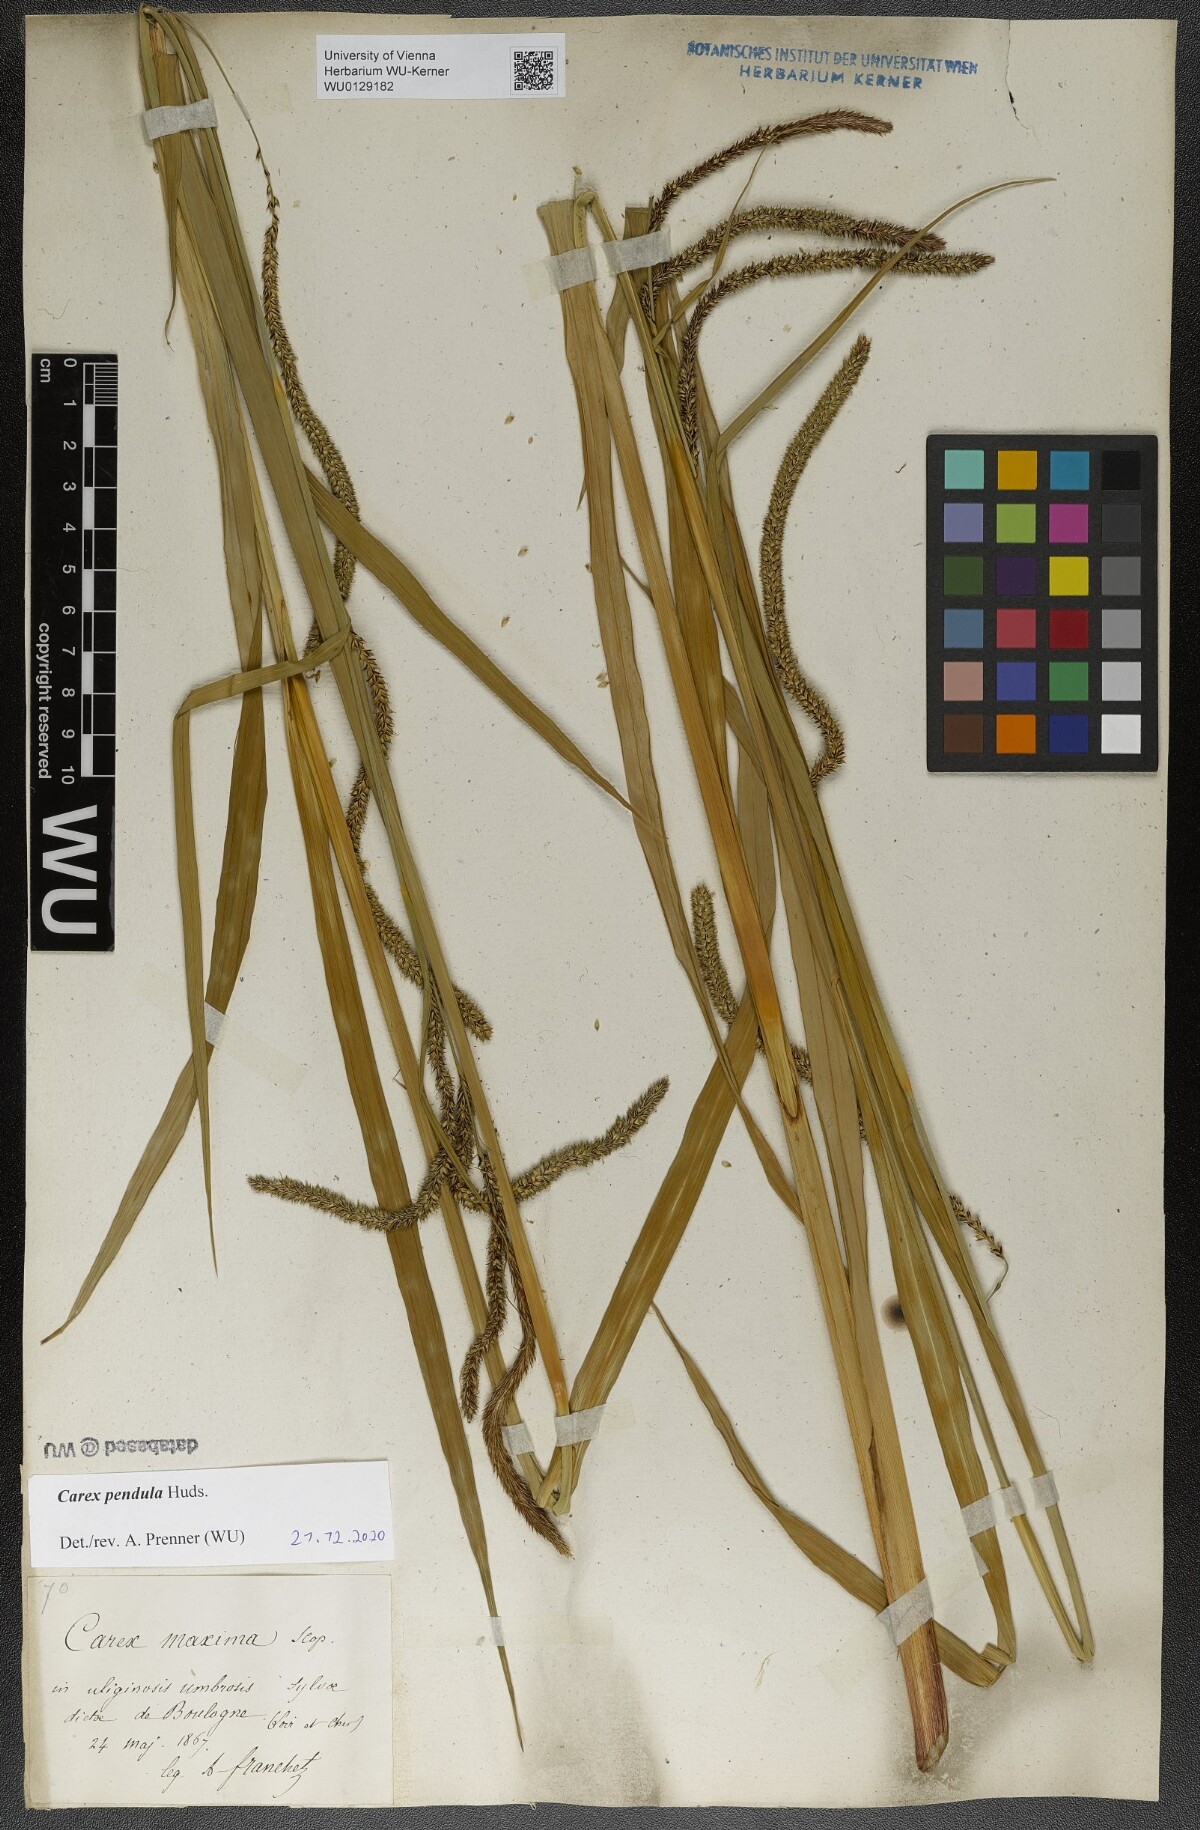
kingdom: Plantae
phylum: Tracheophyta
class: Liliopsida
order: Poales
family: Cyperaceae
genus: Carex
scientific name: Carex pendula
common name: Pendulous sedge
